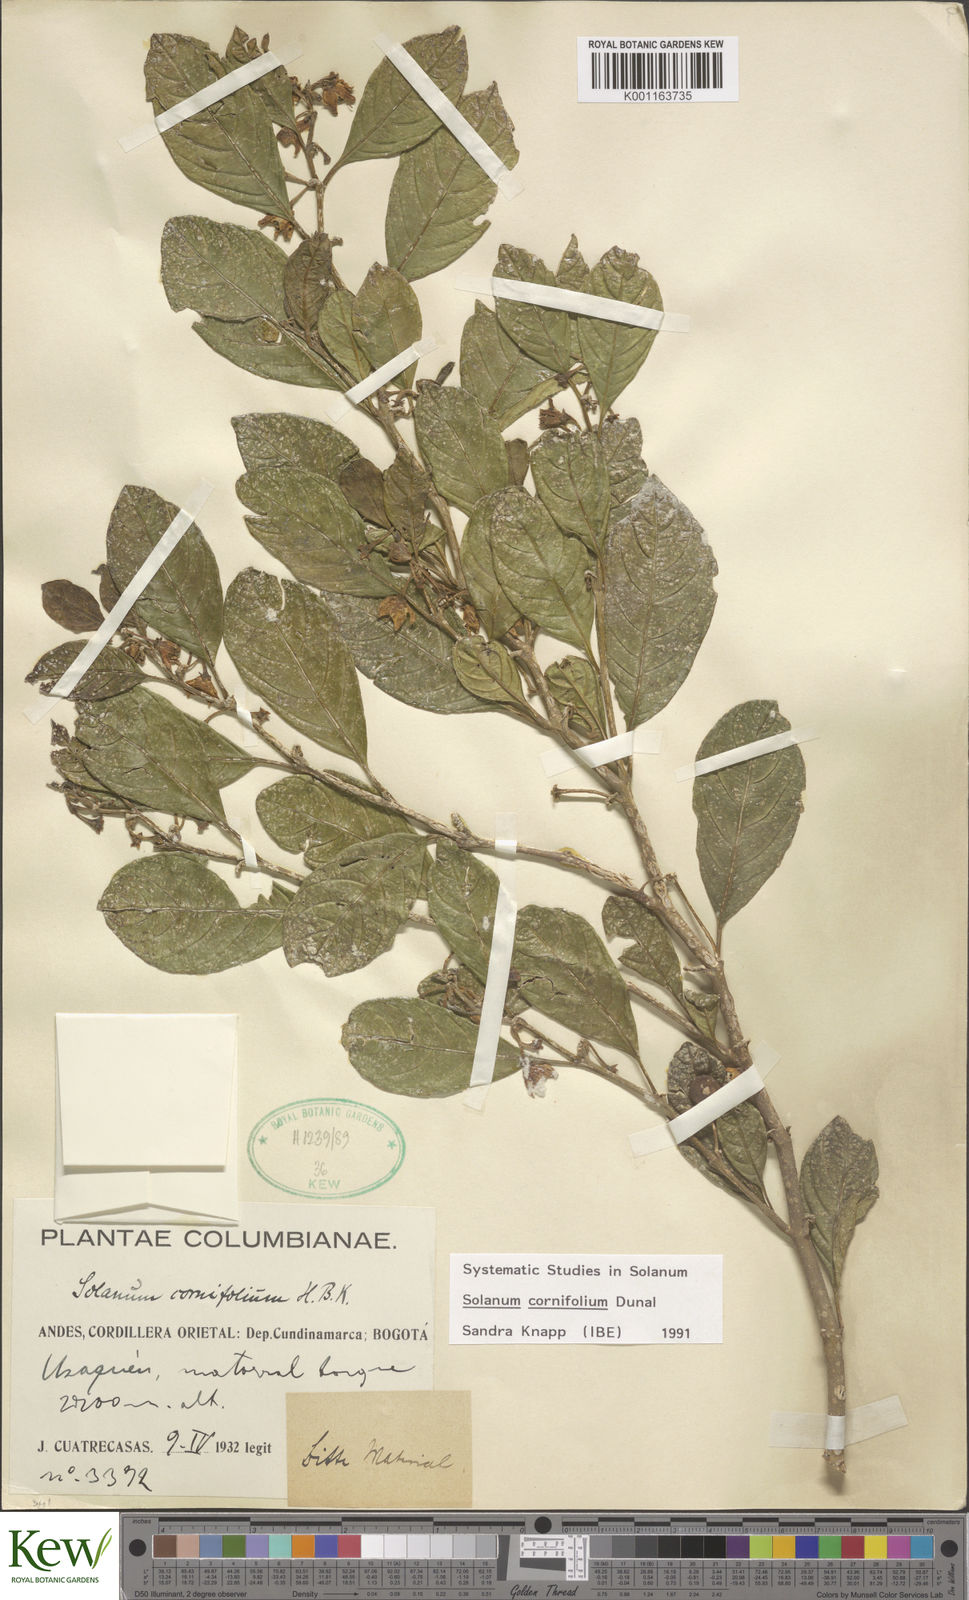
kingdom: Plantae
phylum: Tracheophyta
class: Magnoliopsida
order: Solanales
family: Solanaceae
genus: Solanum
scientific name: Solanum cornifolium
